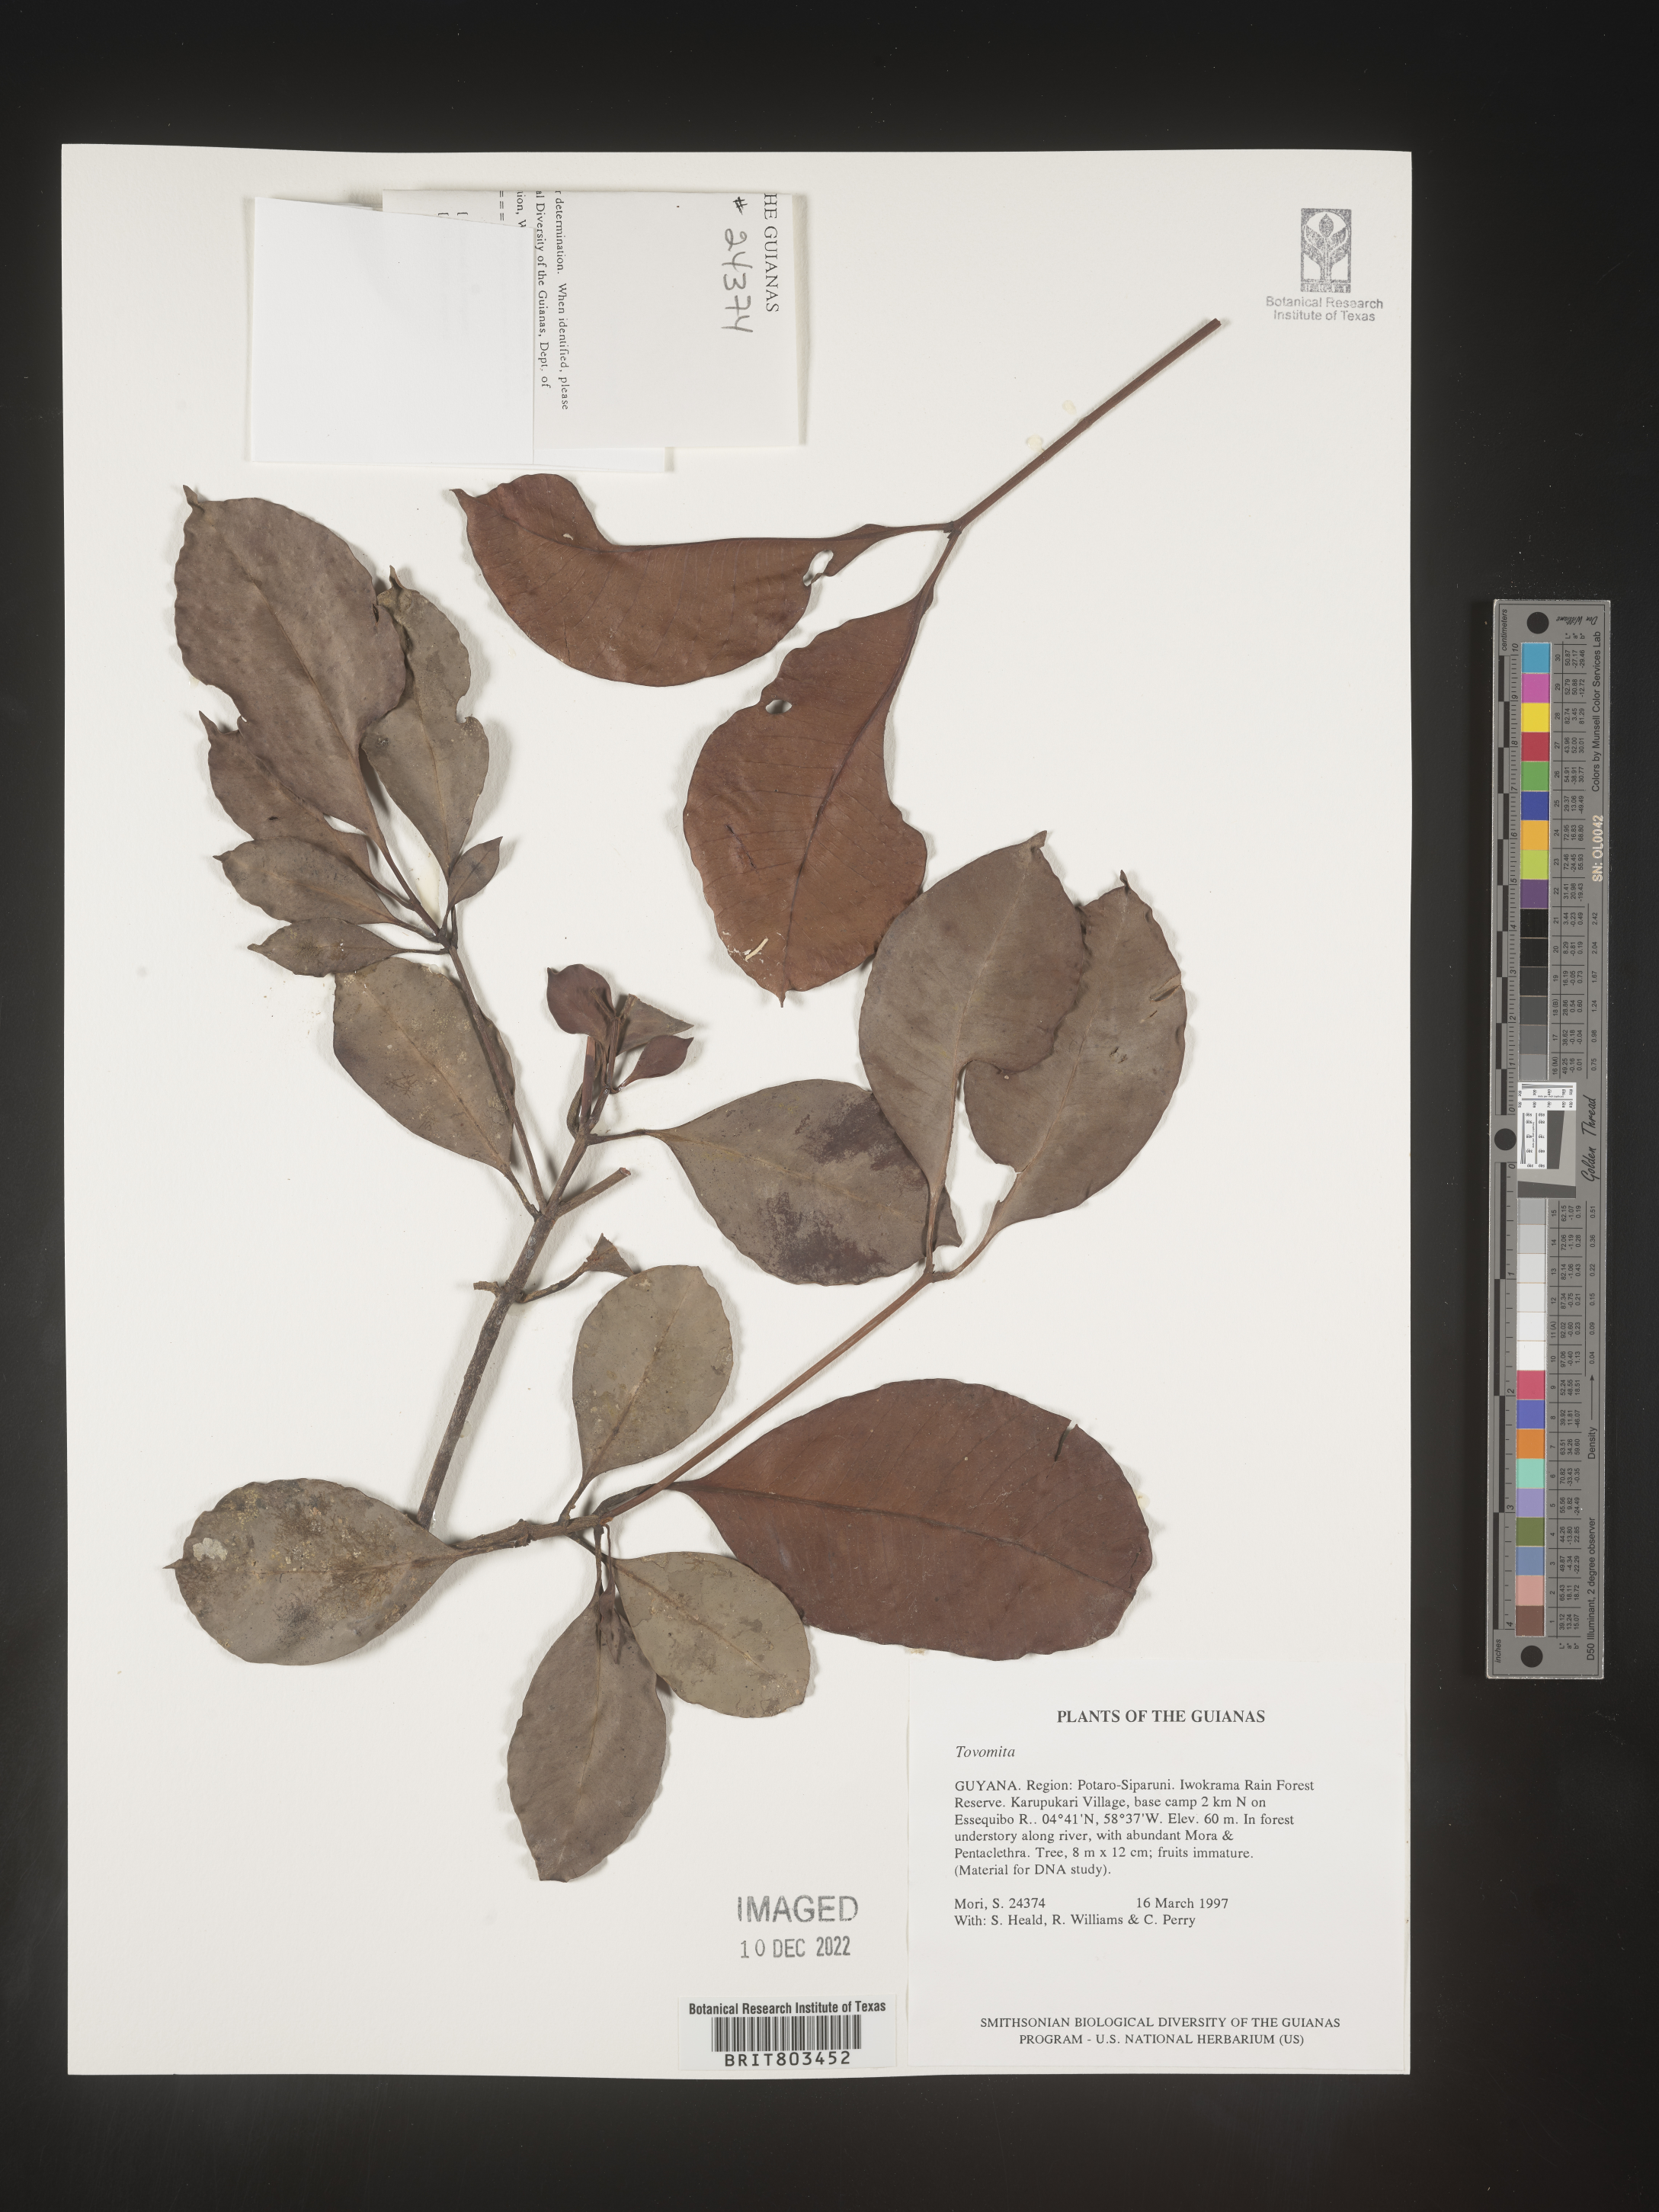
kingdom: Plantae
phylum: Tracheophyta
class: Magnoliopsida
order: Malpighiales
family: Clusiaceae
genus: Tovomita
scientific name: Tovomita
